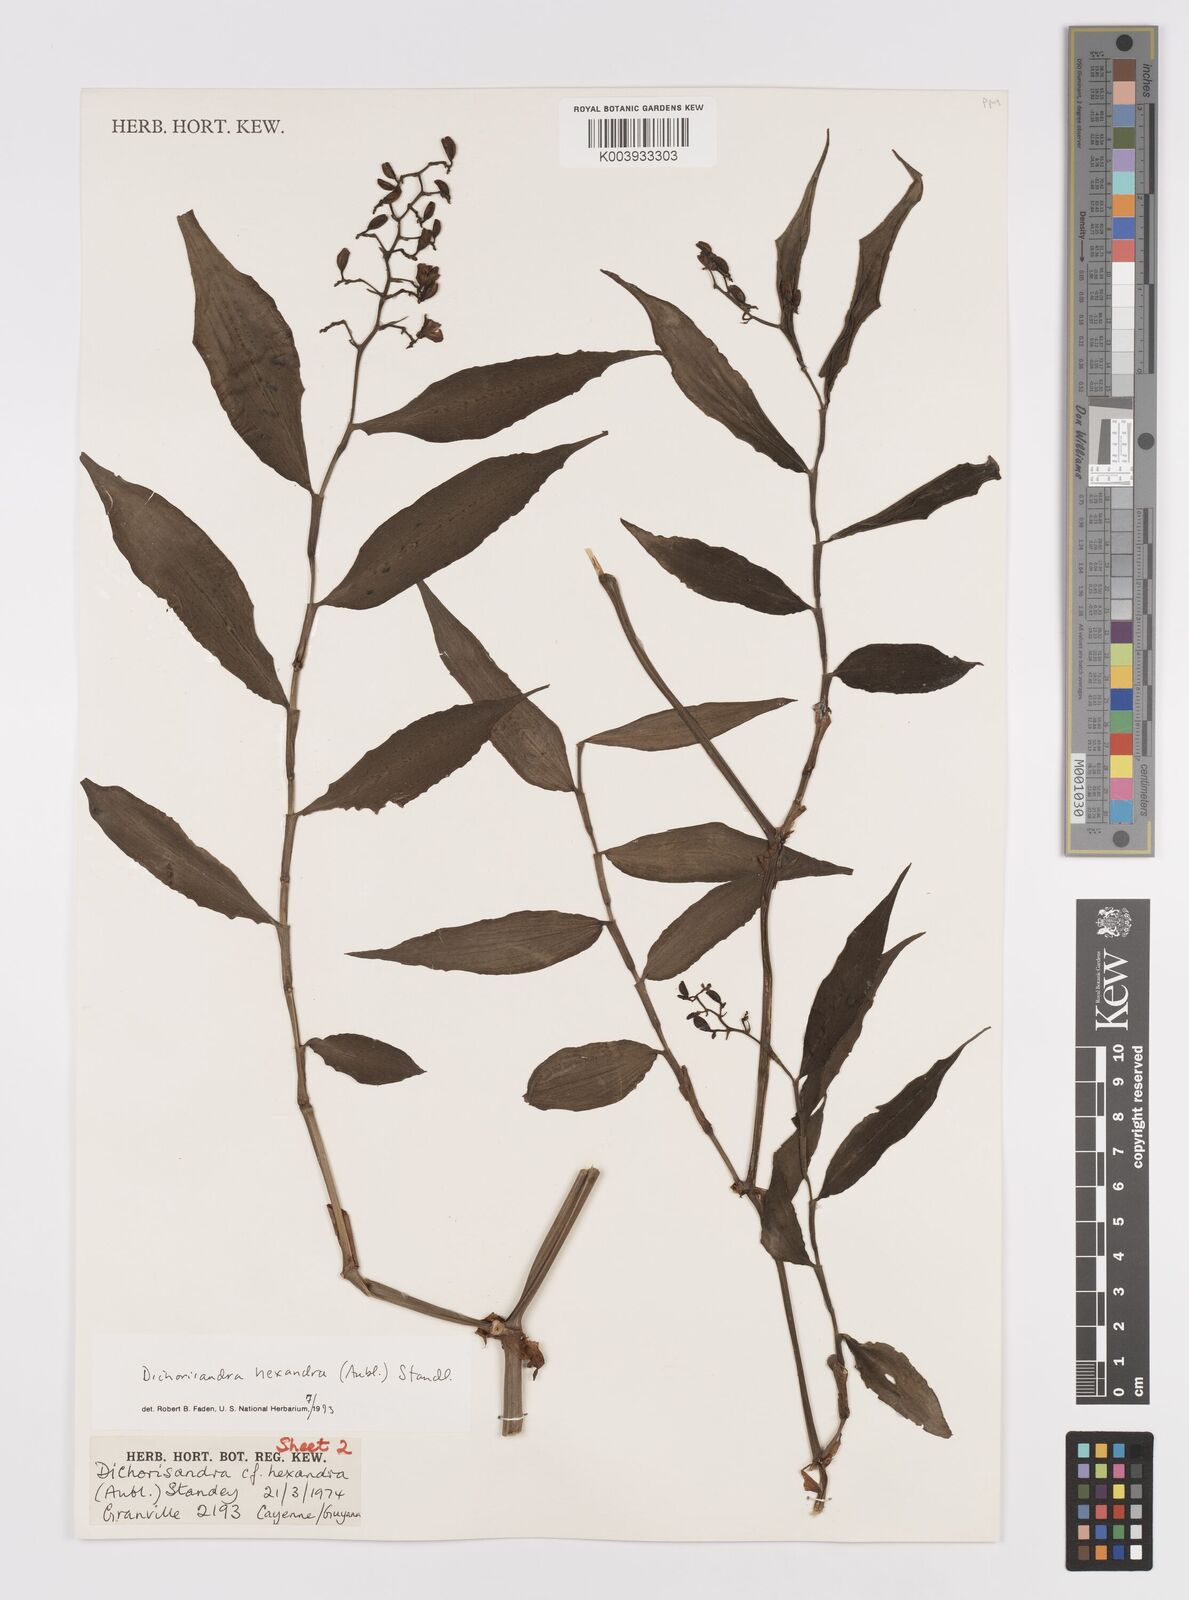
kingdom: Plantae
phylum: Tracheophyta
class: Liliopsida
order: Commelinales
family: Commelinaceae
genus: Dichorisandra
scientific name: Dichorisandra hexandra
